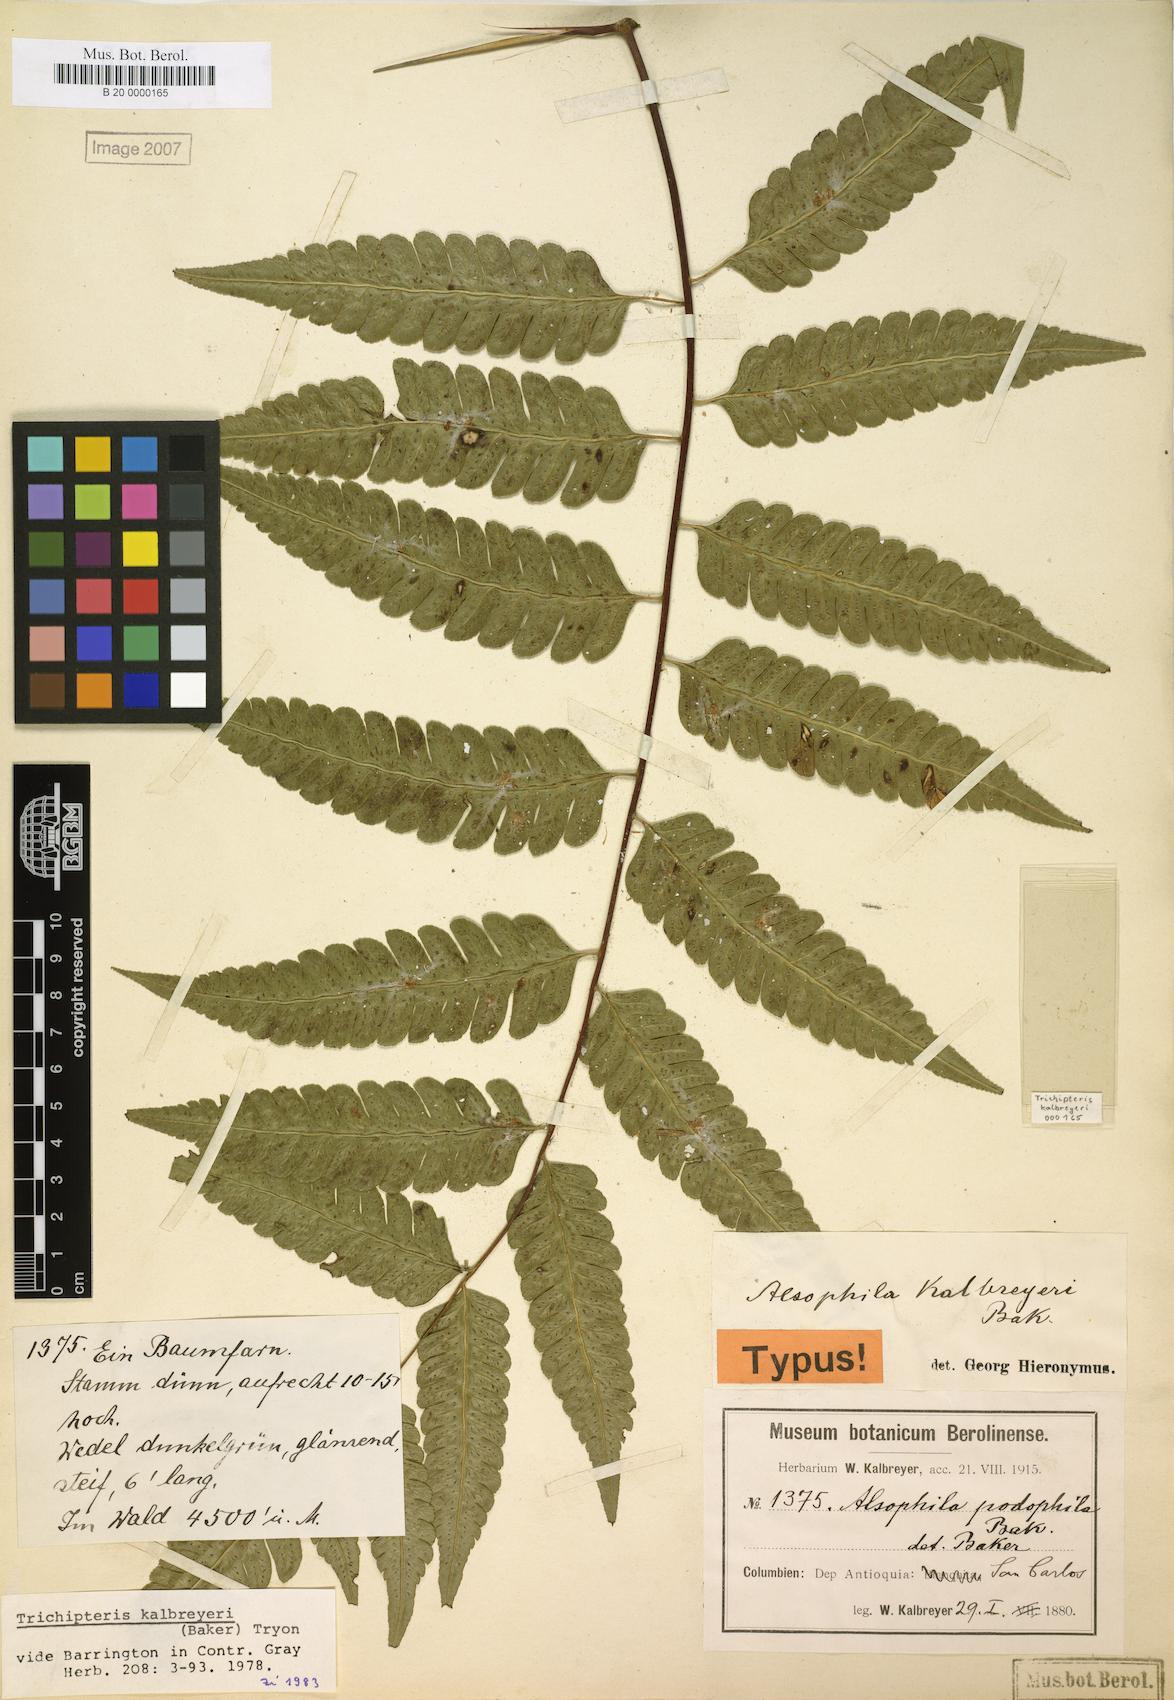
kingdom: Plantae
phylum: Tracheophyta
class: Polypodiopsida
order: Cyatheales
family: Cyatheaceae
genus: Cyathea
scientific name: Cyathea kalbreyeri
